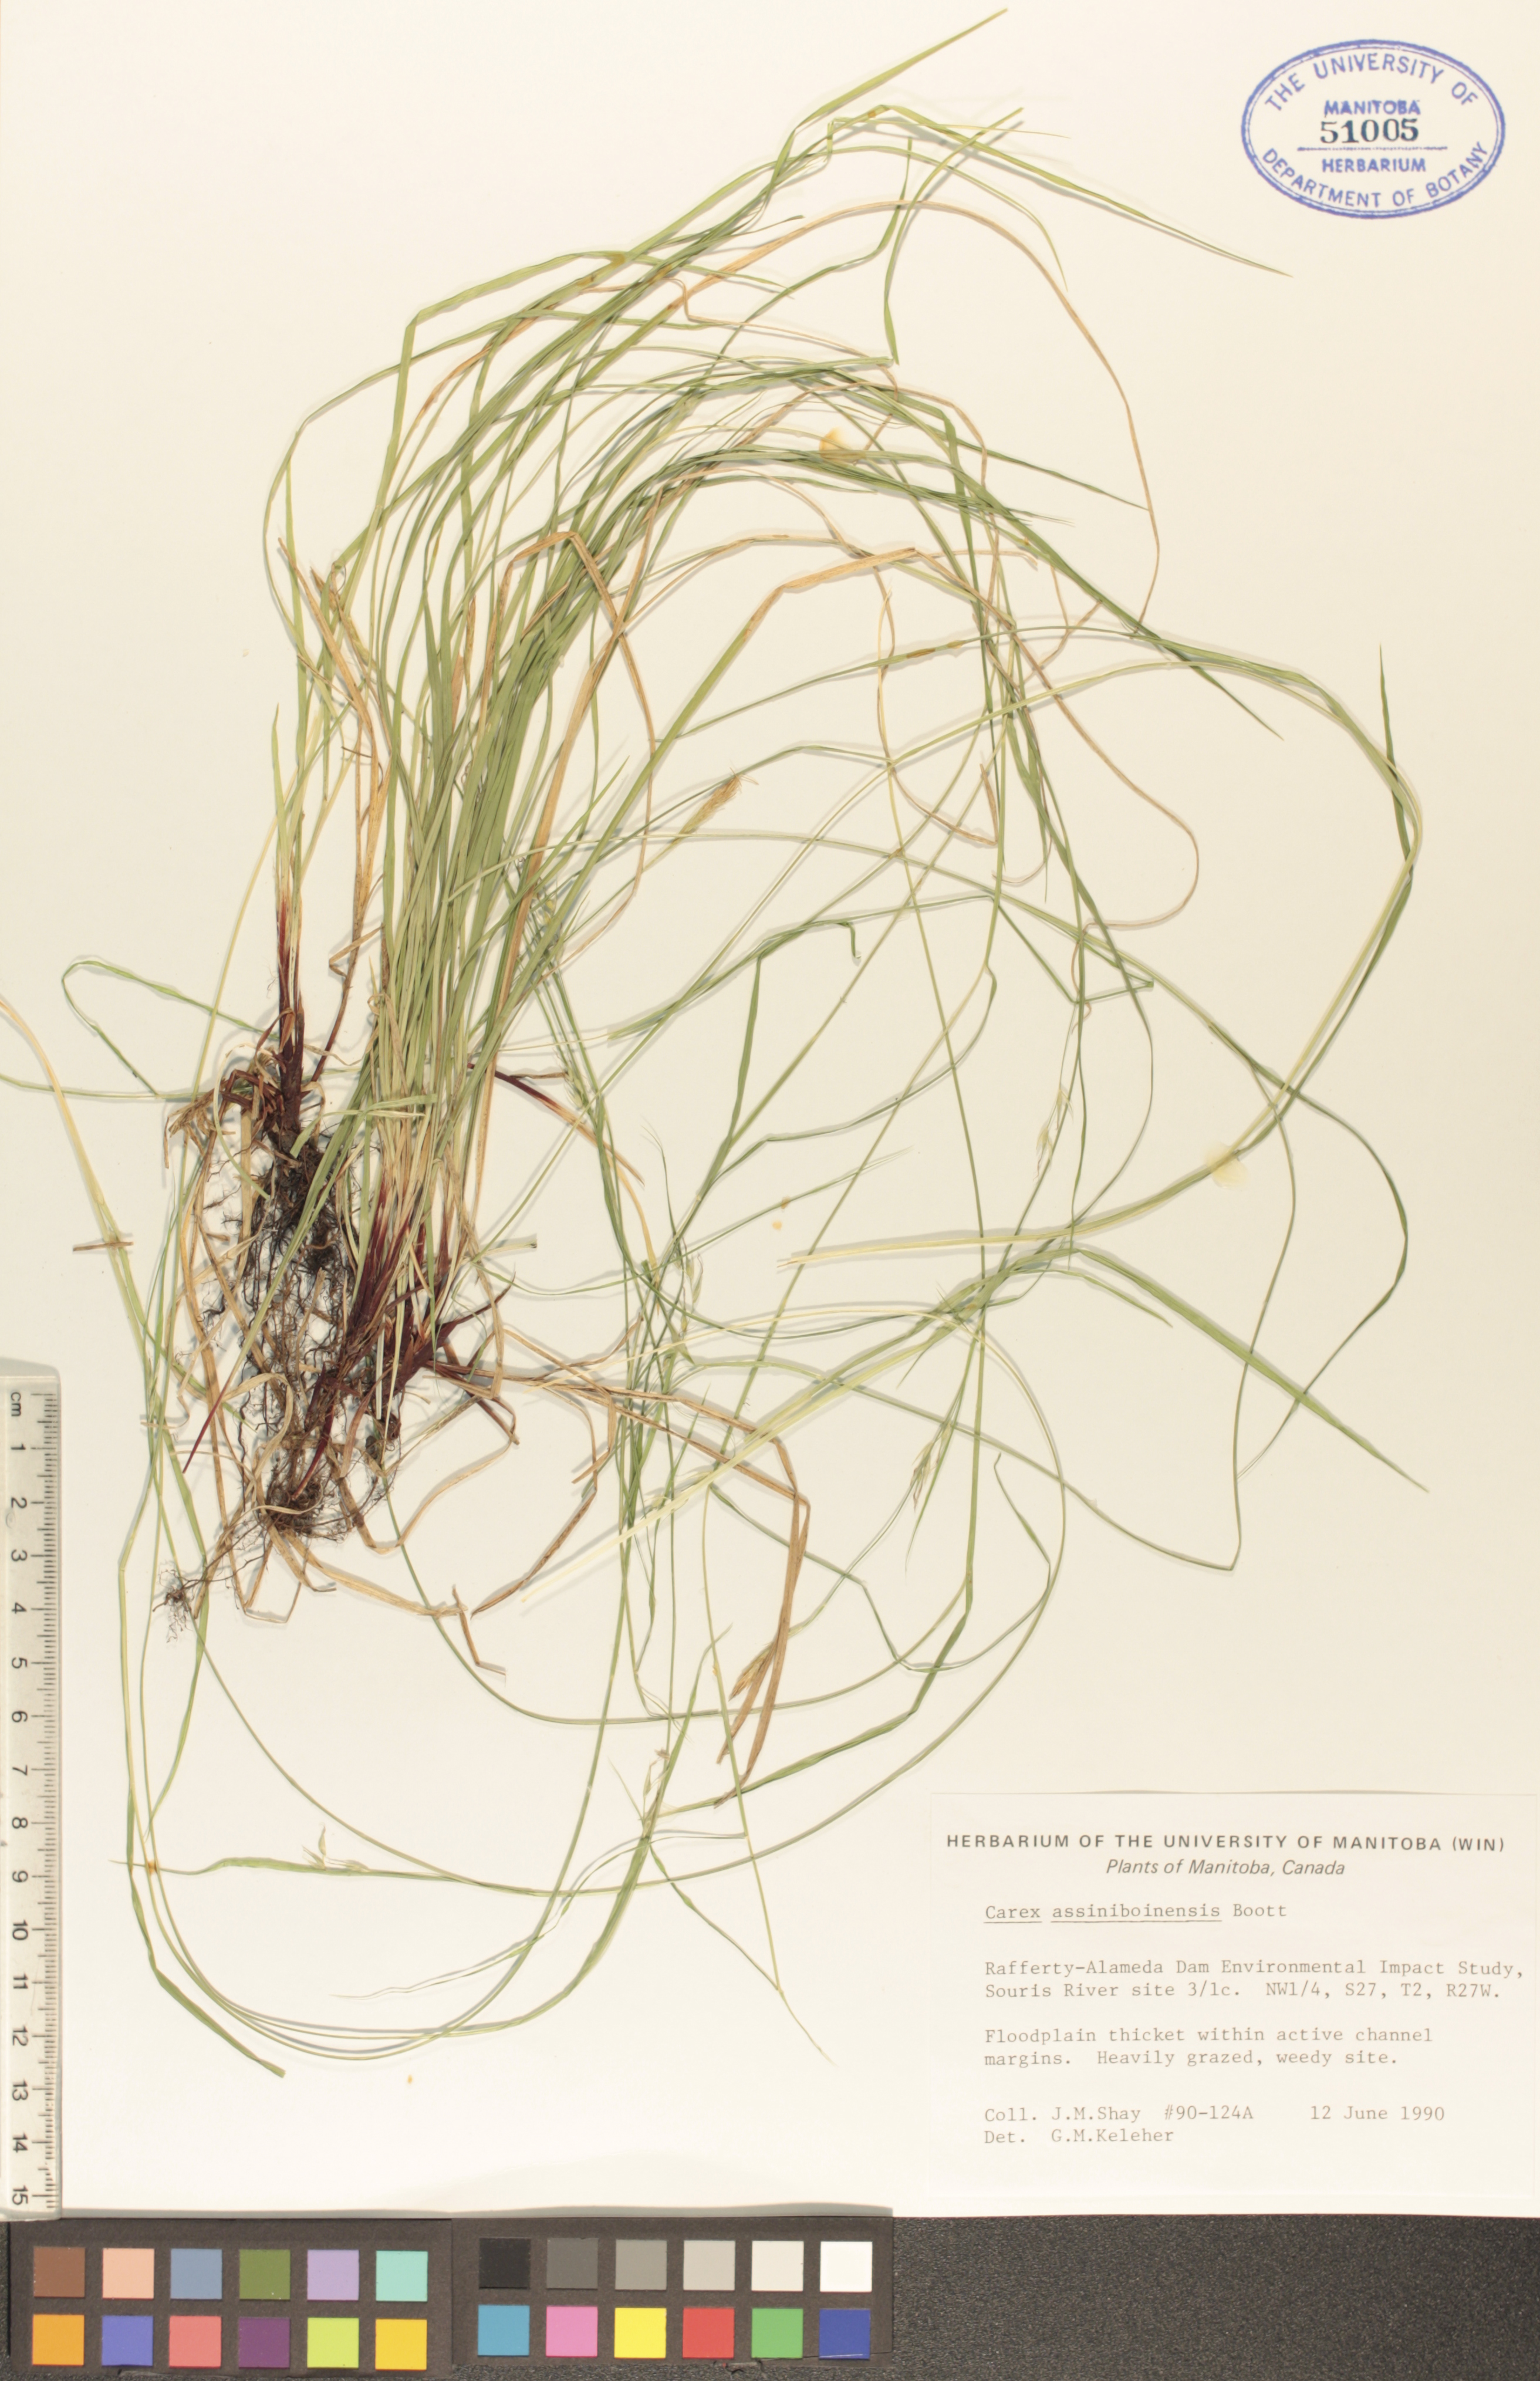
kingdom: Plantae
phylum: Tracheophyta
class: Liliopsida
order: Poales
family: Cyperaceae
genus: Carex
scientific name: Carex assiniboinensis
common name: Assiniboia sedge
